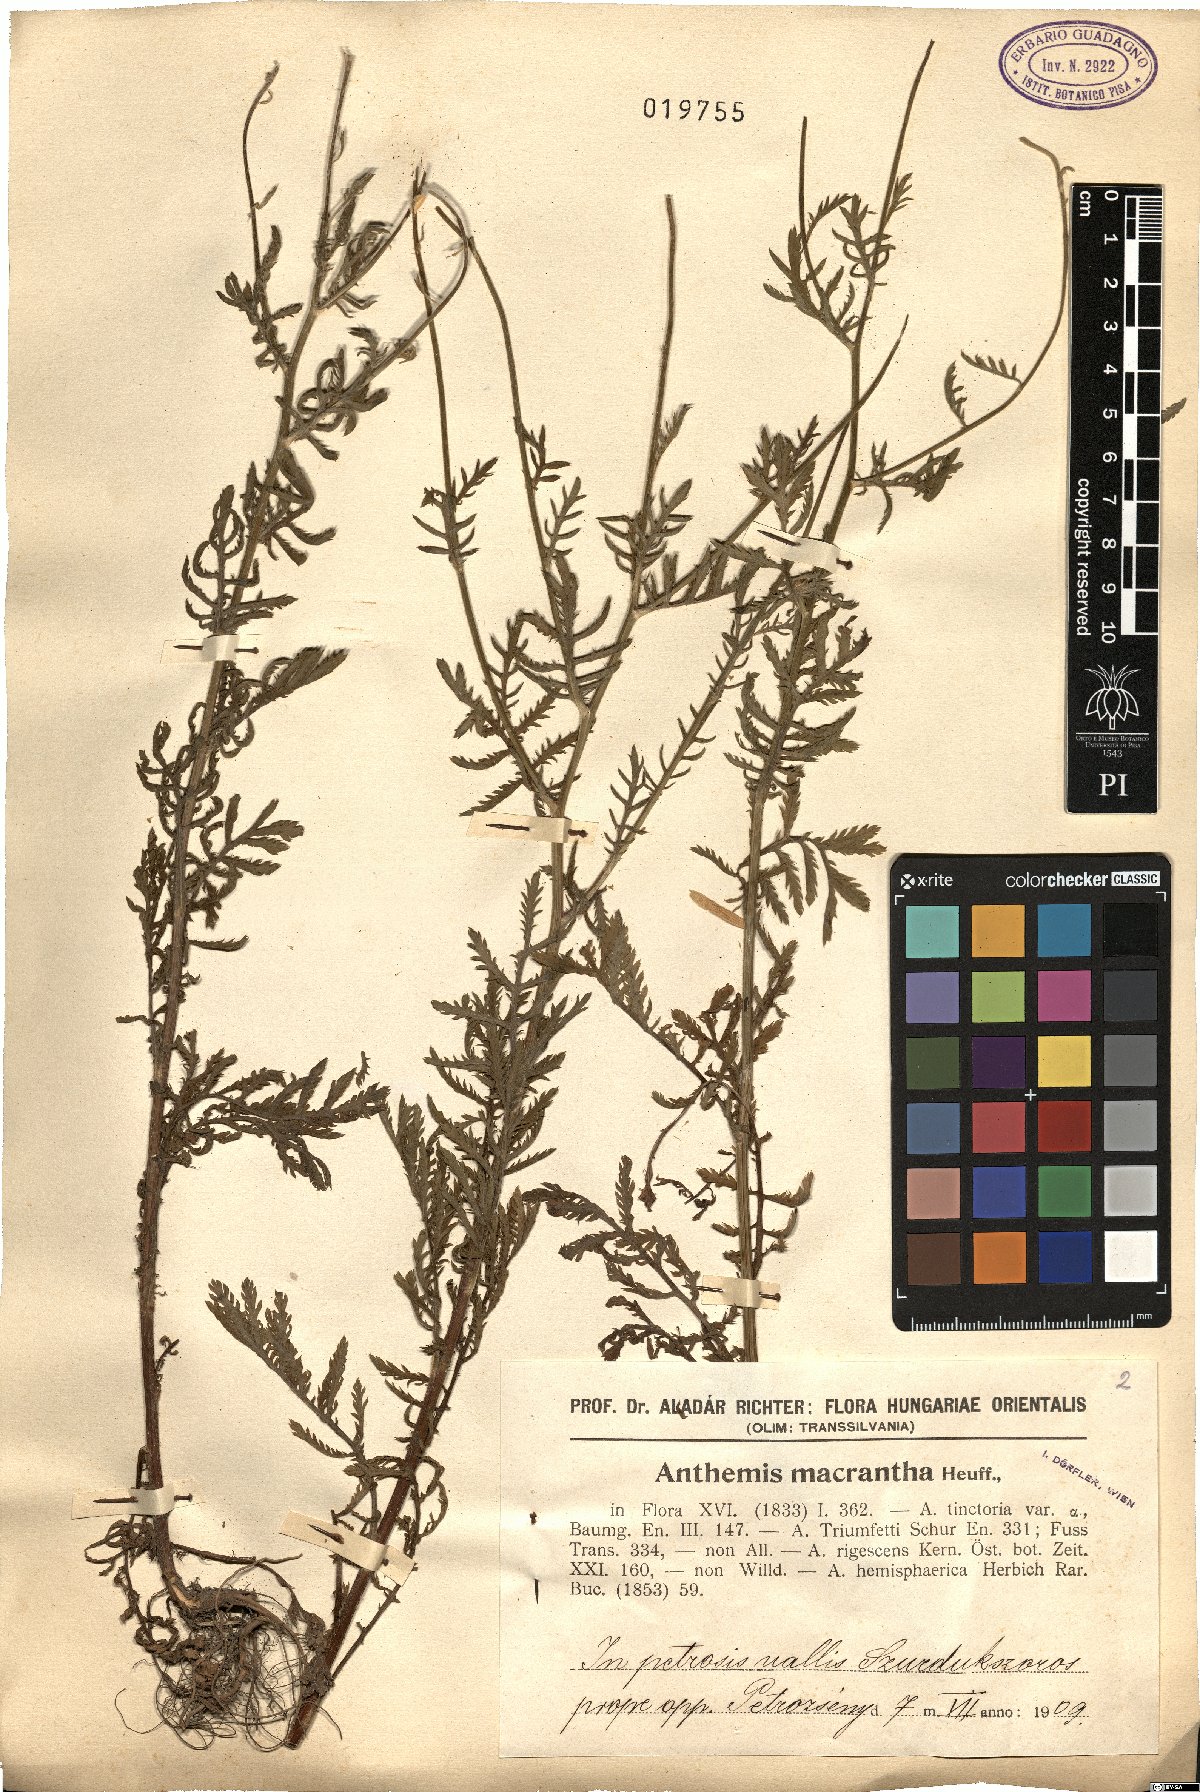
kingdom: Plantae
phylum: Tracheophyta
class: Magnoliopsida
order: Asterales
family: Asteraceae
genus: Cota
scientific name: Cota macrantha
